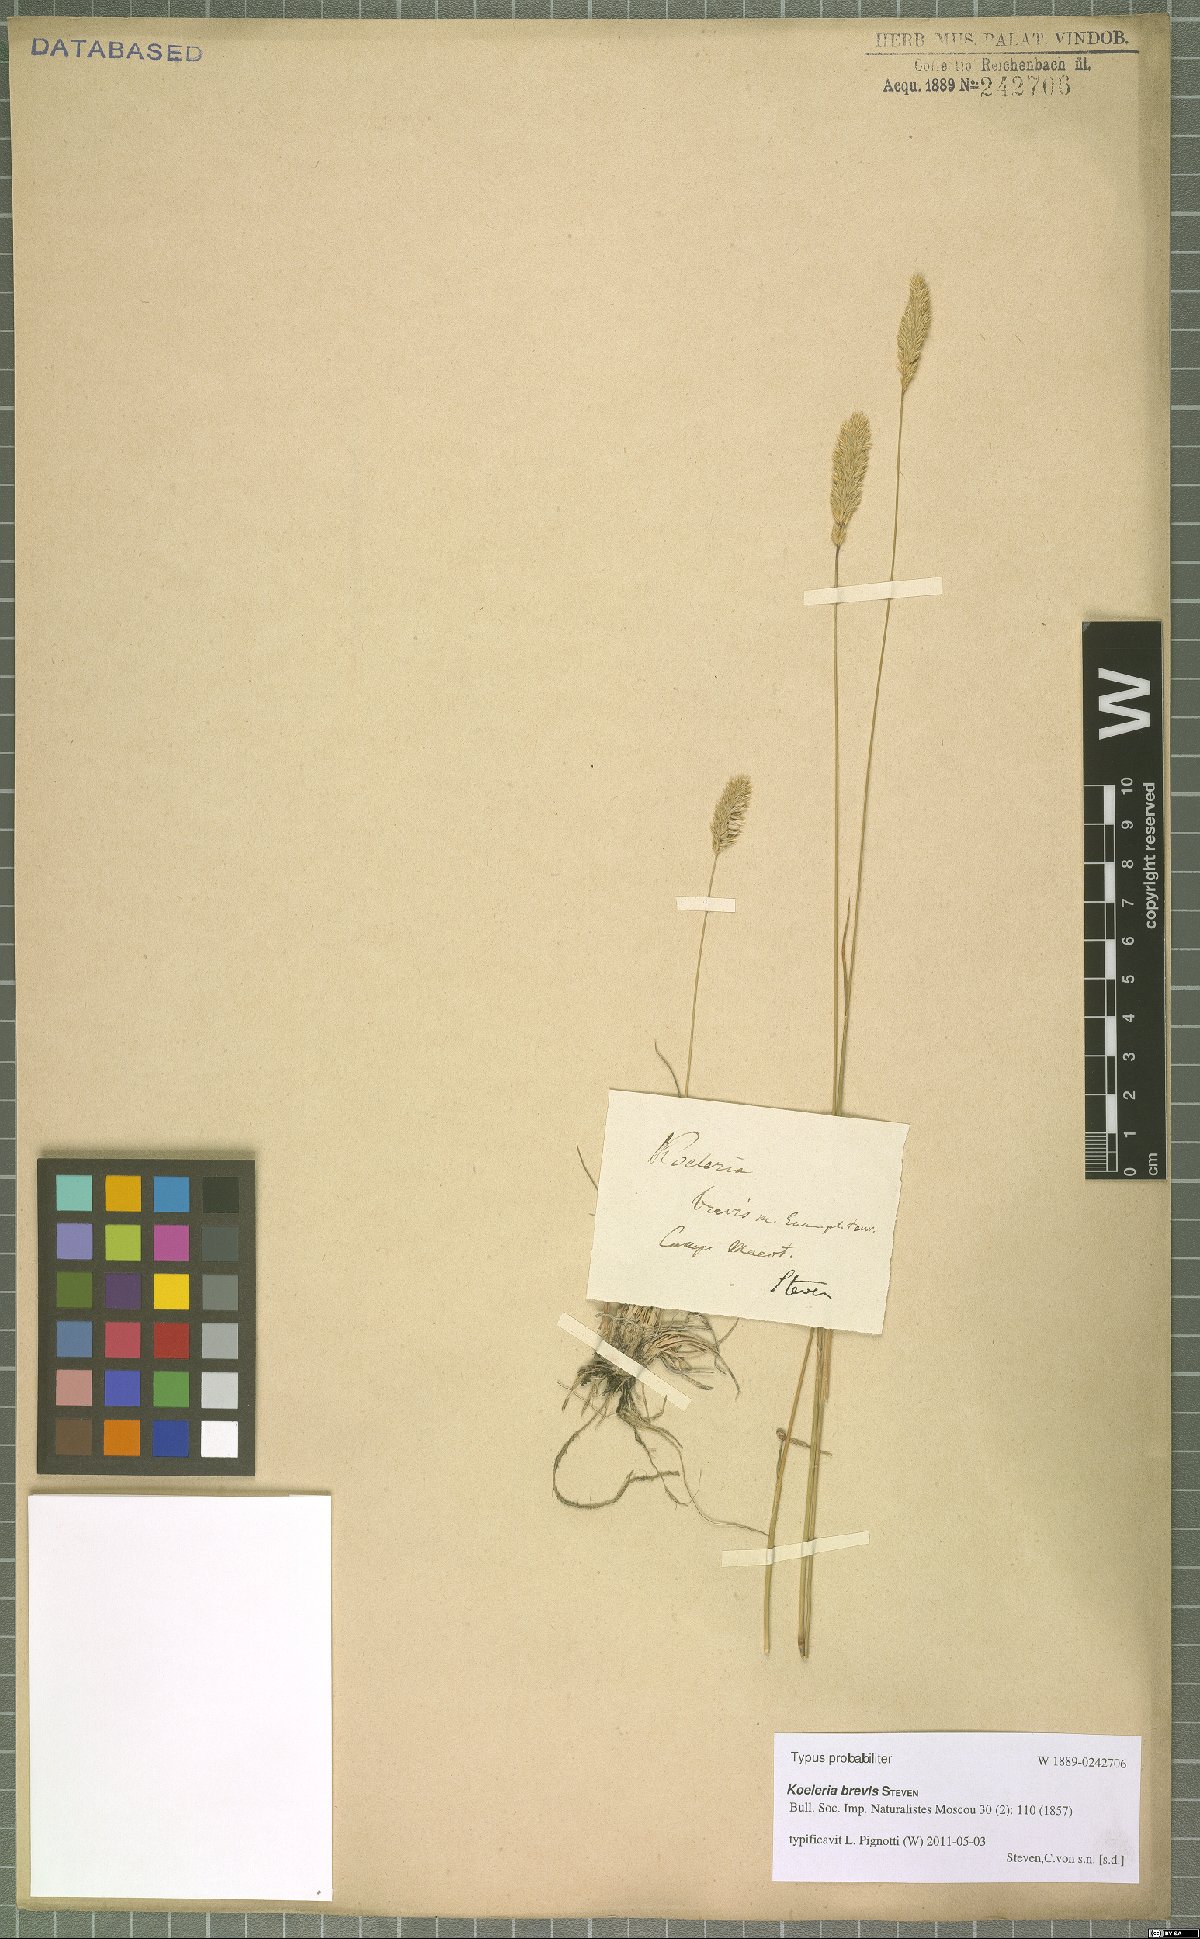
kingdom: Plantae
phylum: Tracheophyta
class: Liliopsida
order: Poales
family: Poaceae
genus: Koeleria
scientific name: Koeleria brevis
